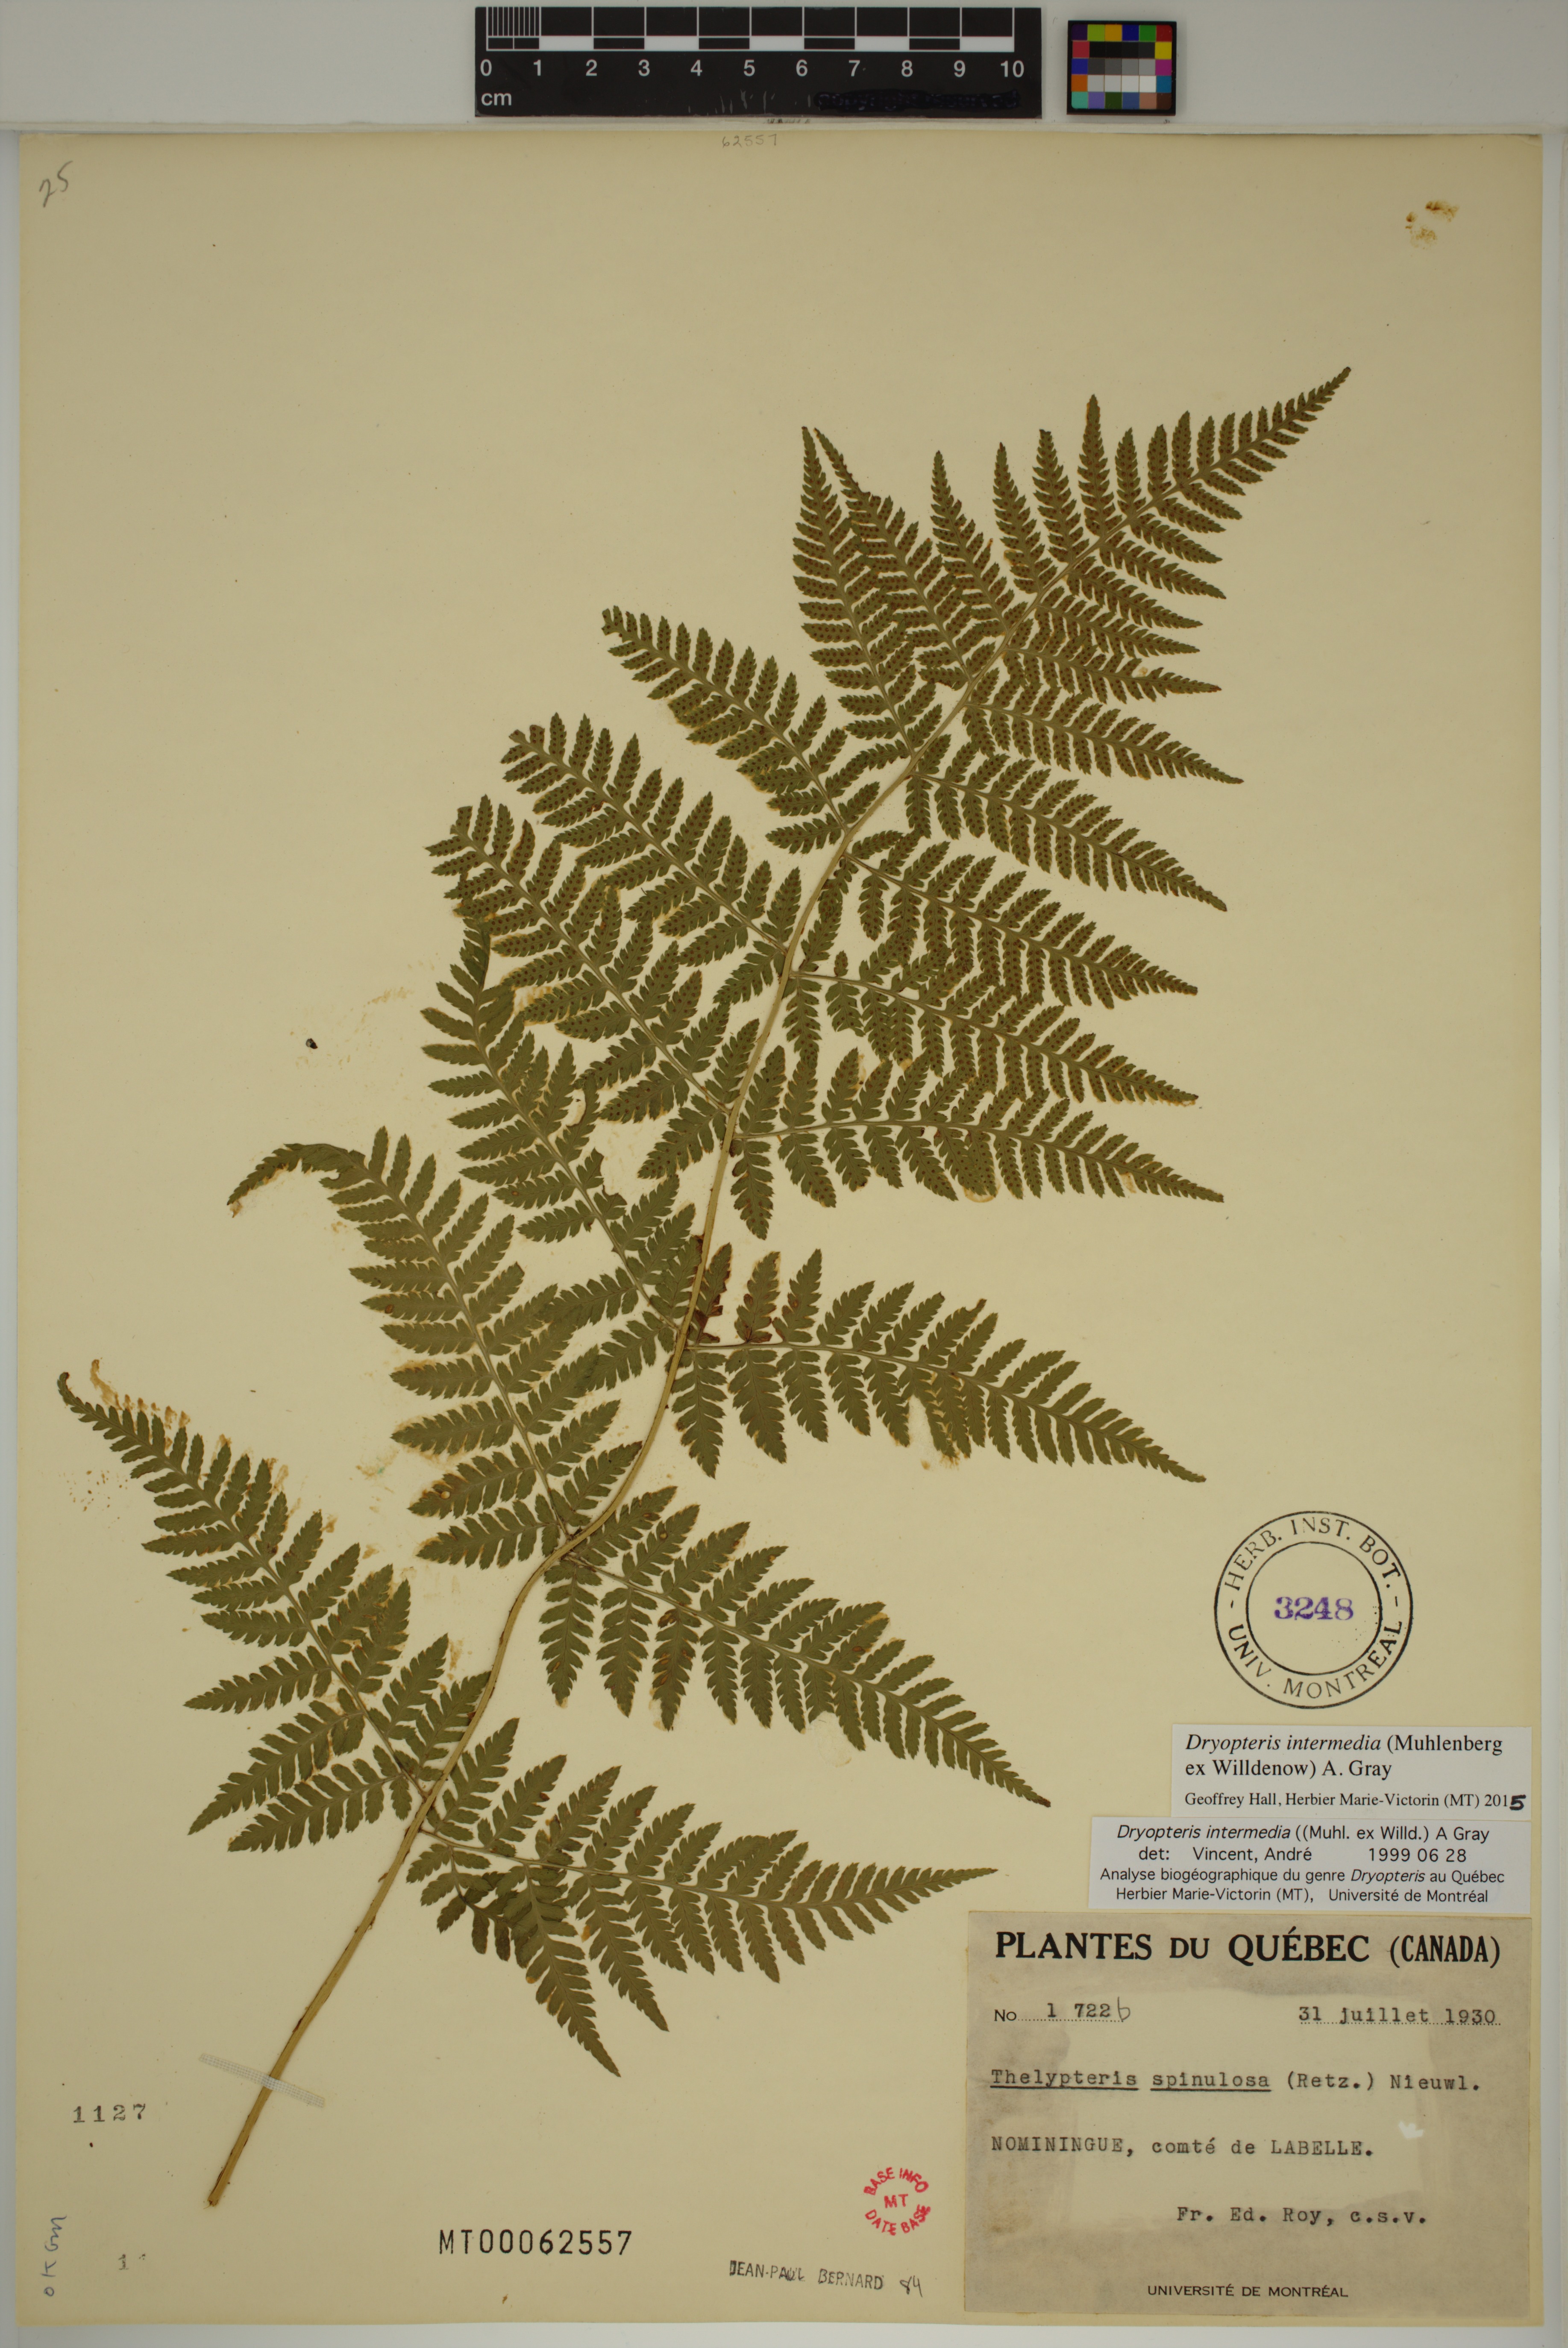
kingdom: Plantae
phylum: Tracheophyta
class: Polypodiopsida
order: Polypodiales
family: Dryopteridaceae
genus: Dryopteris
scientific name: Dryopteris intermedia
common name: Evergreen wood fern
